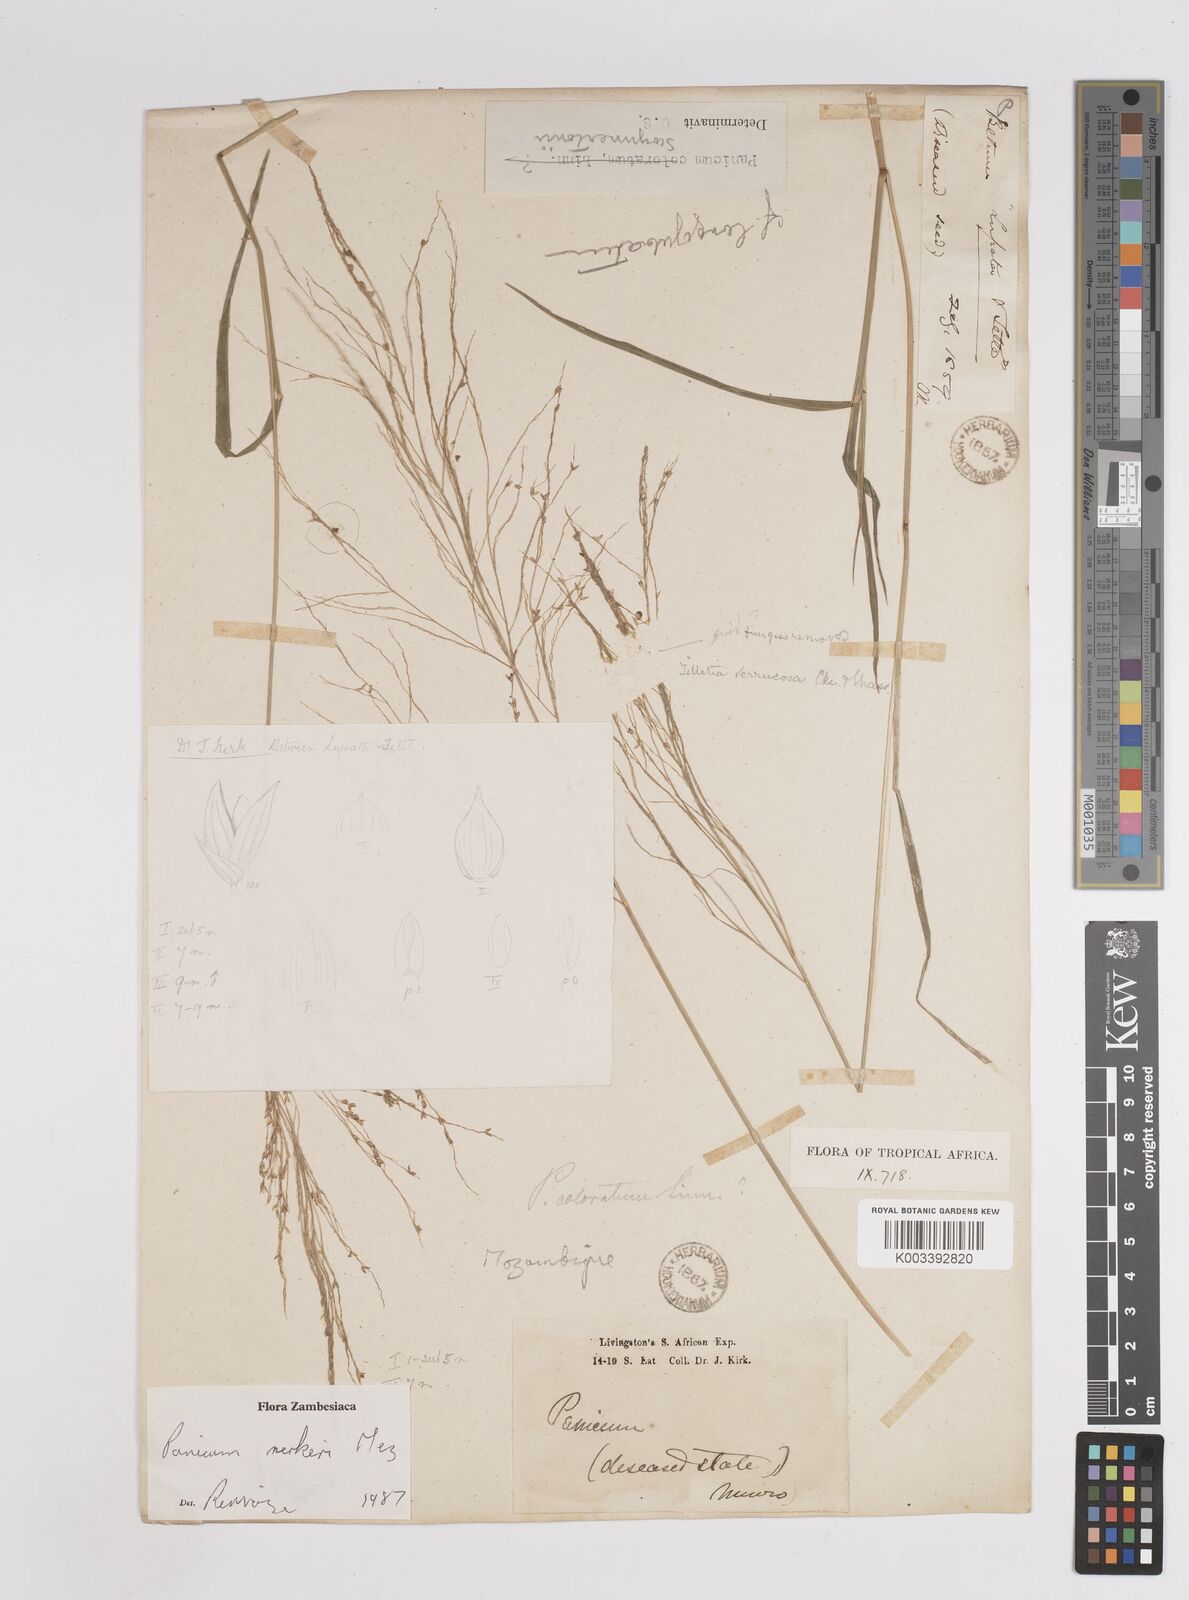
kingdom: Plantae
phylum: Tracheophyta
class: Liliopsida
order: Poales
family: Poaceae
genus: Panicum
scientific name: Panicum merkeri
